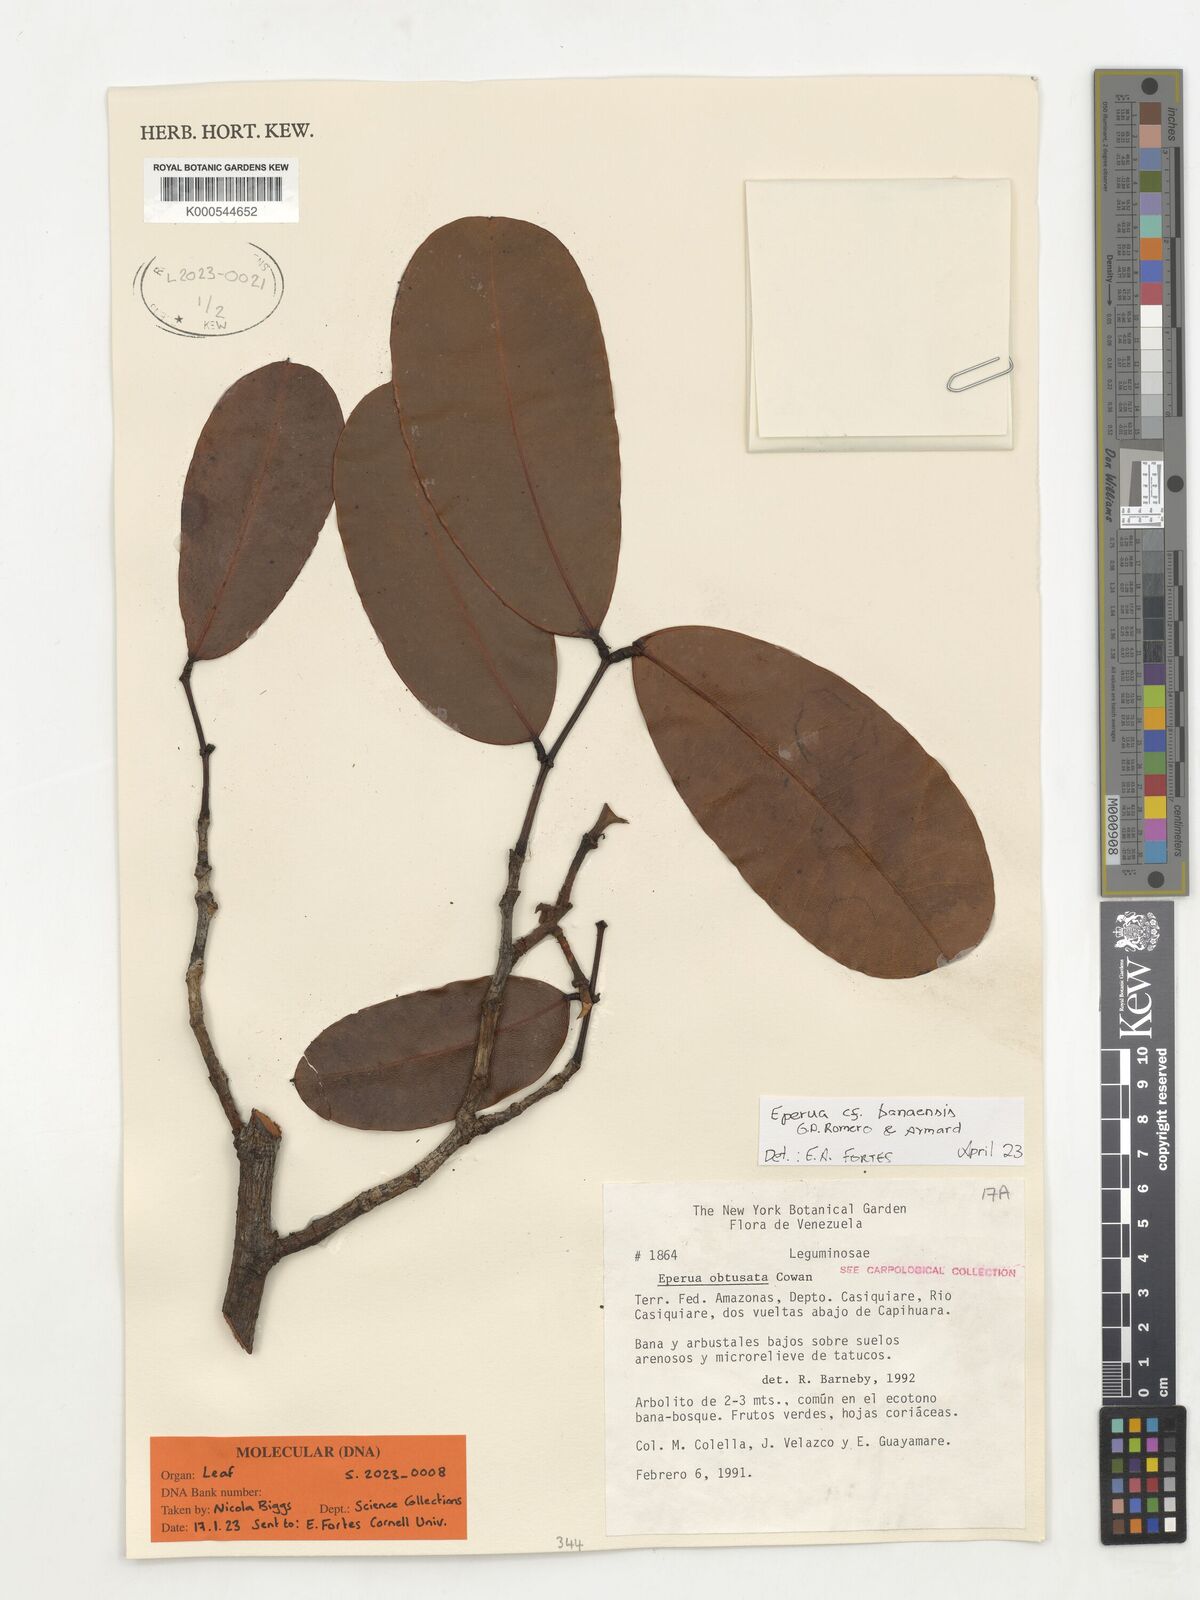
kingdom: Plantae
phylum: Tracheophyta
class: Magnoliopsida
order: Fabales
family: Fabaceae
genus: Eperua
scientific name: Eperua
